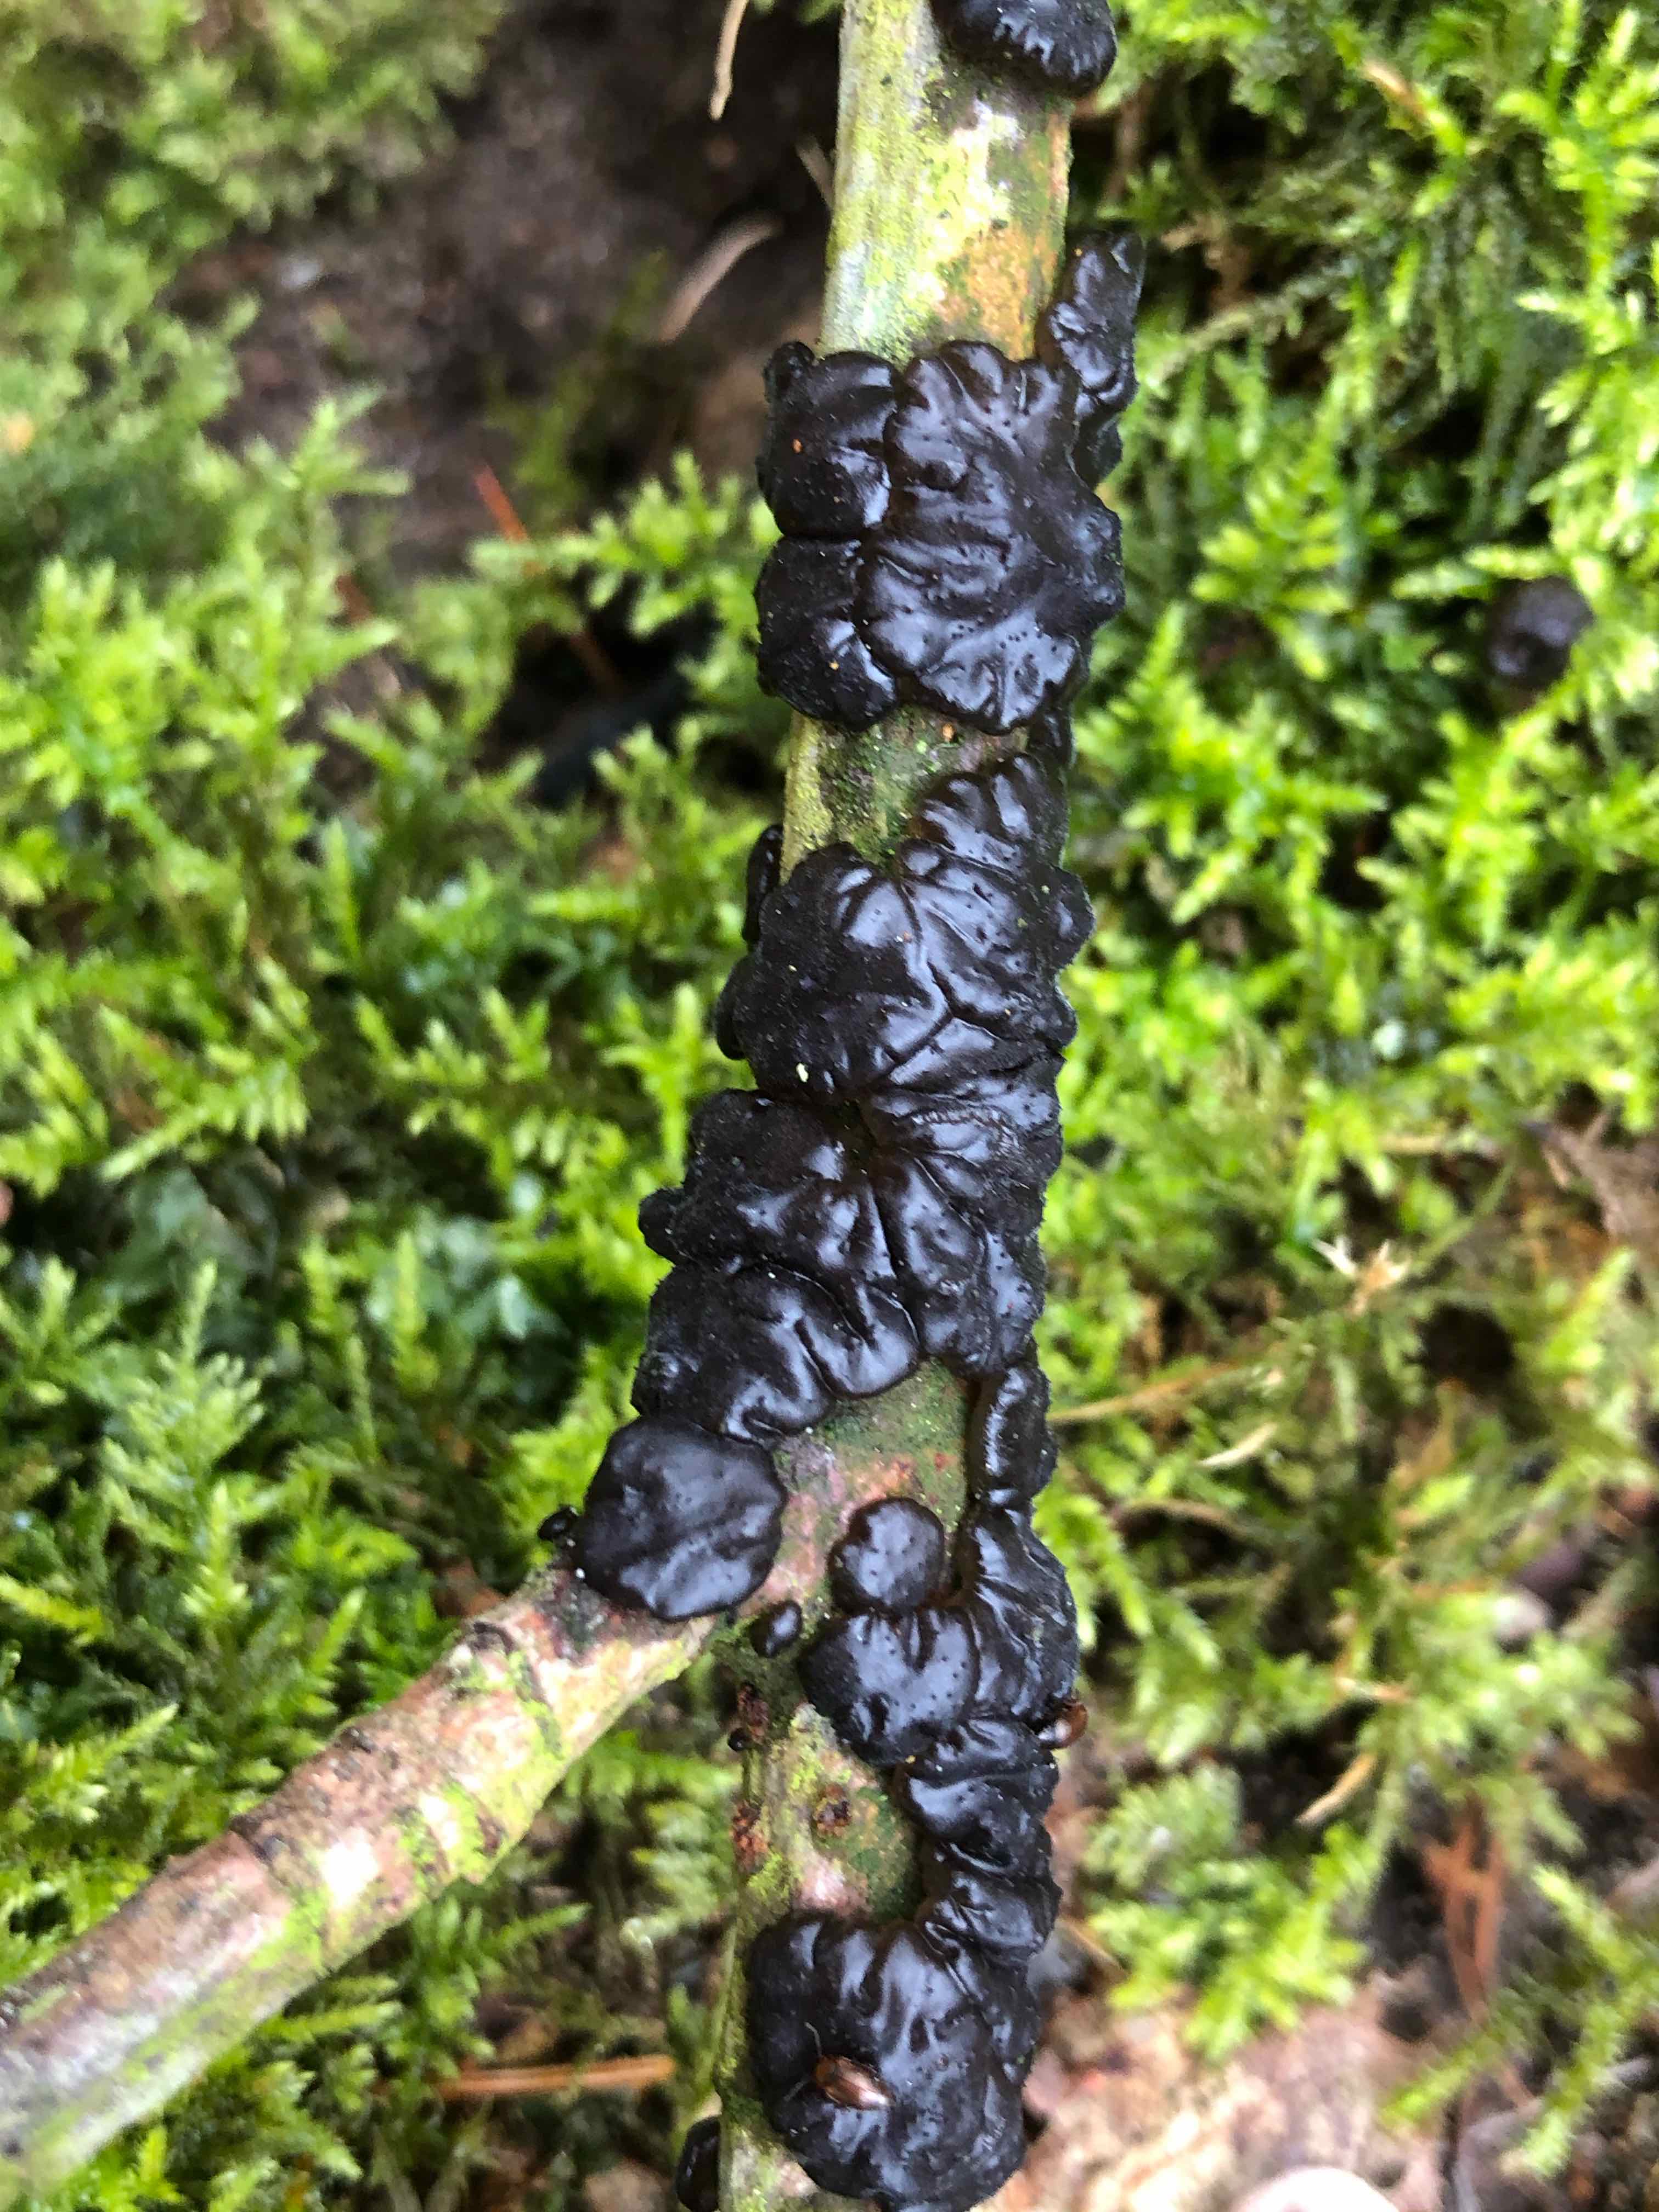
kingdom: Fungi
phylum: Basidiomycota
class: Agaricomycetes
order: Auriculariales
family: Auriculariaceae
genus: Exidia
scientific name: Exidia nigricans
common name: almindelig bævretop
